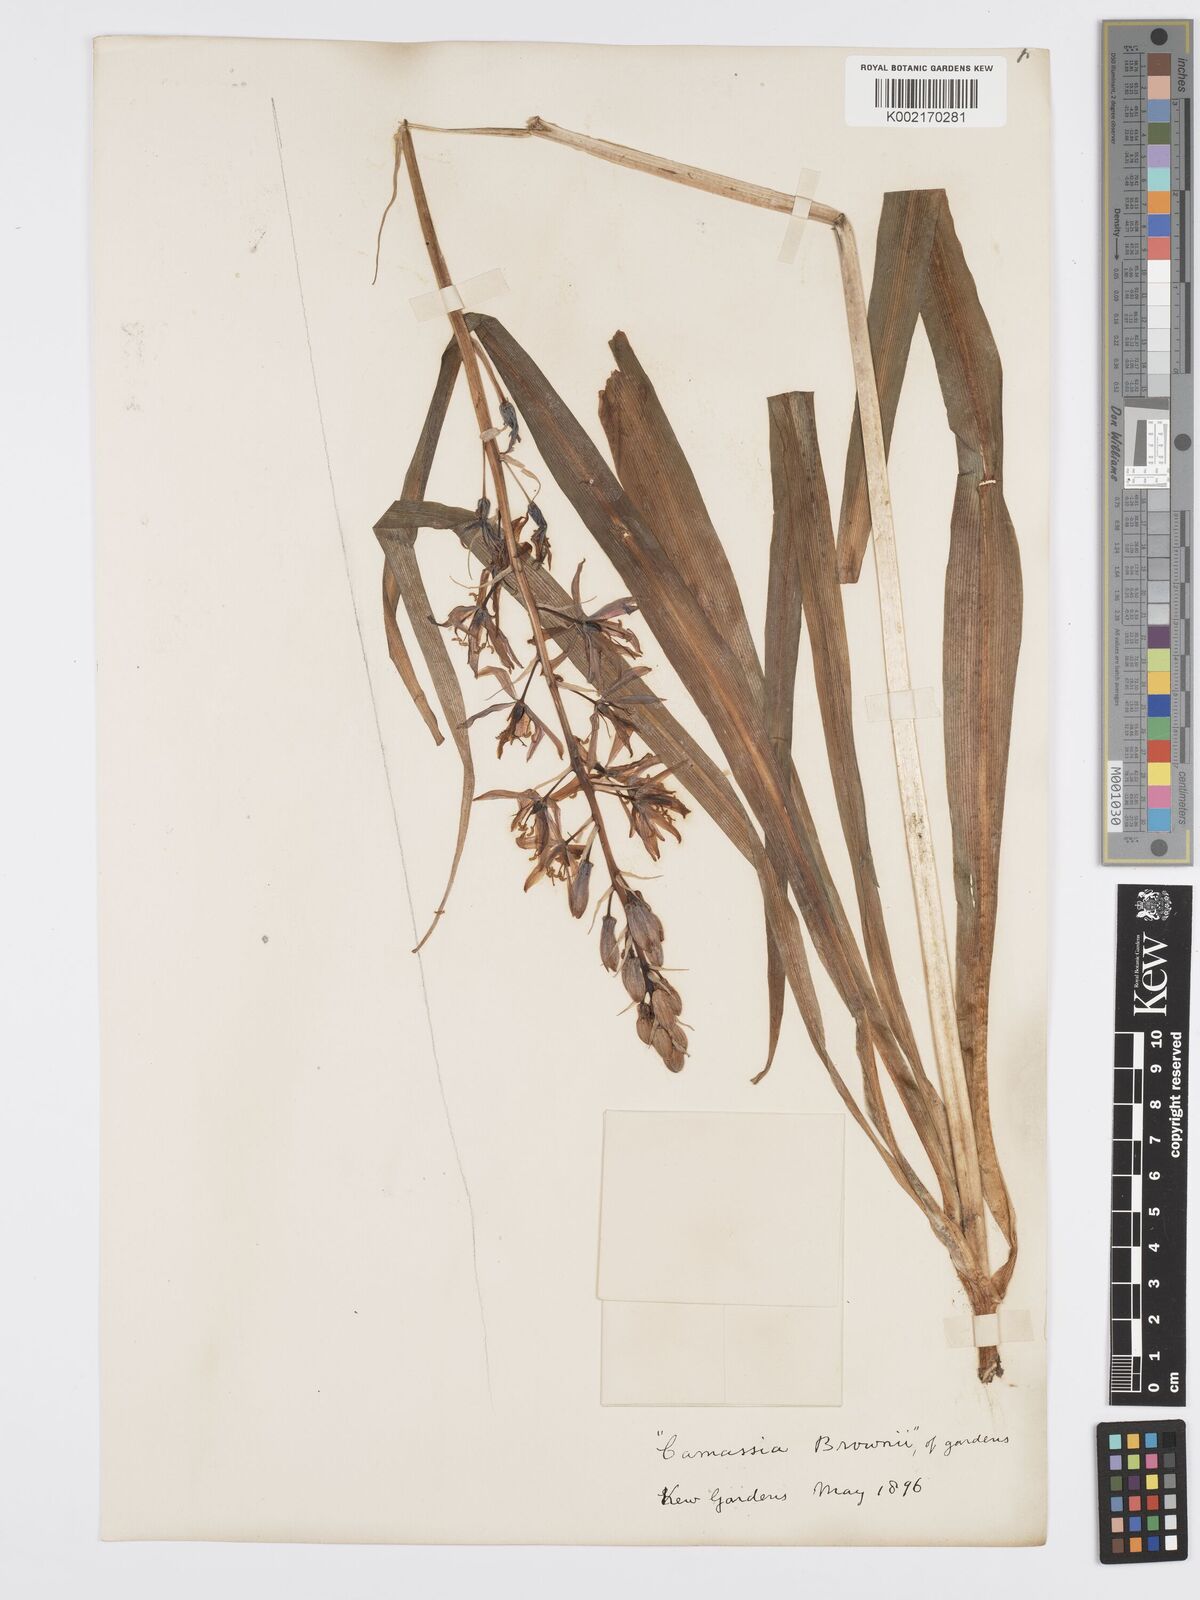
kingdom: Plantae
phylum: Tracheophyta
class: Liliopsida
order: Asparagales
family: Asparagaceae
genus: Camassia
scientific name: Camassia leichtlinii
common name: Leichtlin's camas
